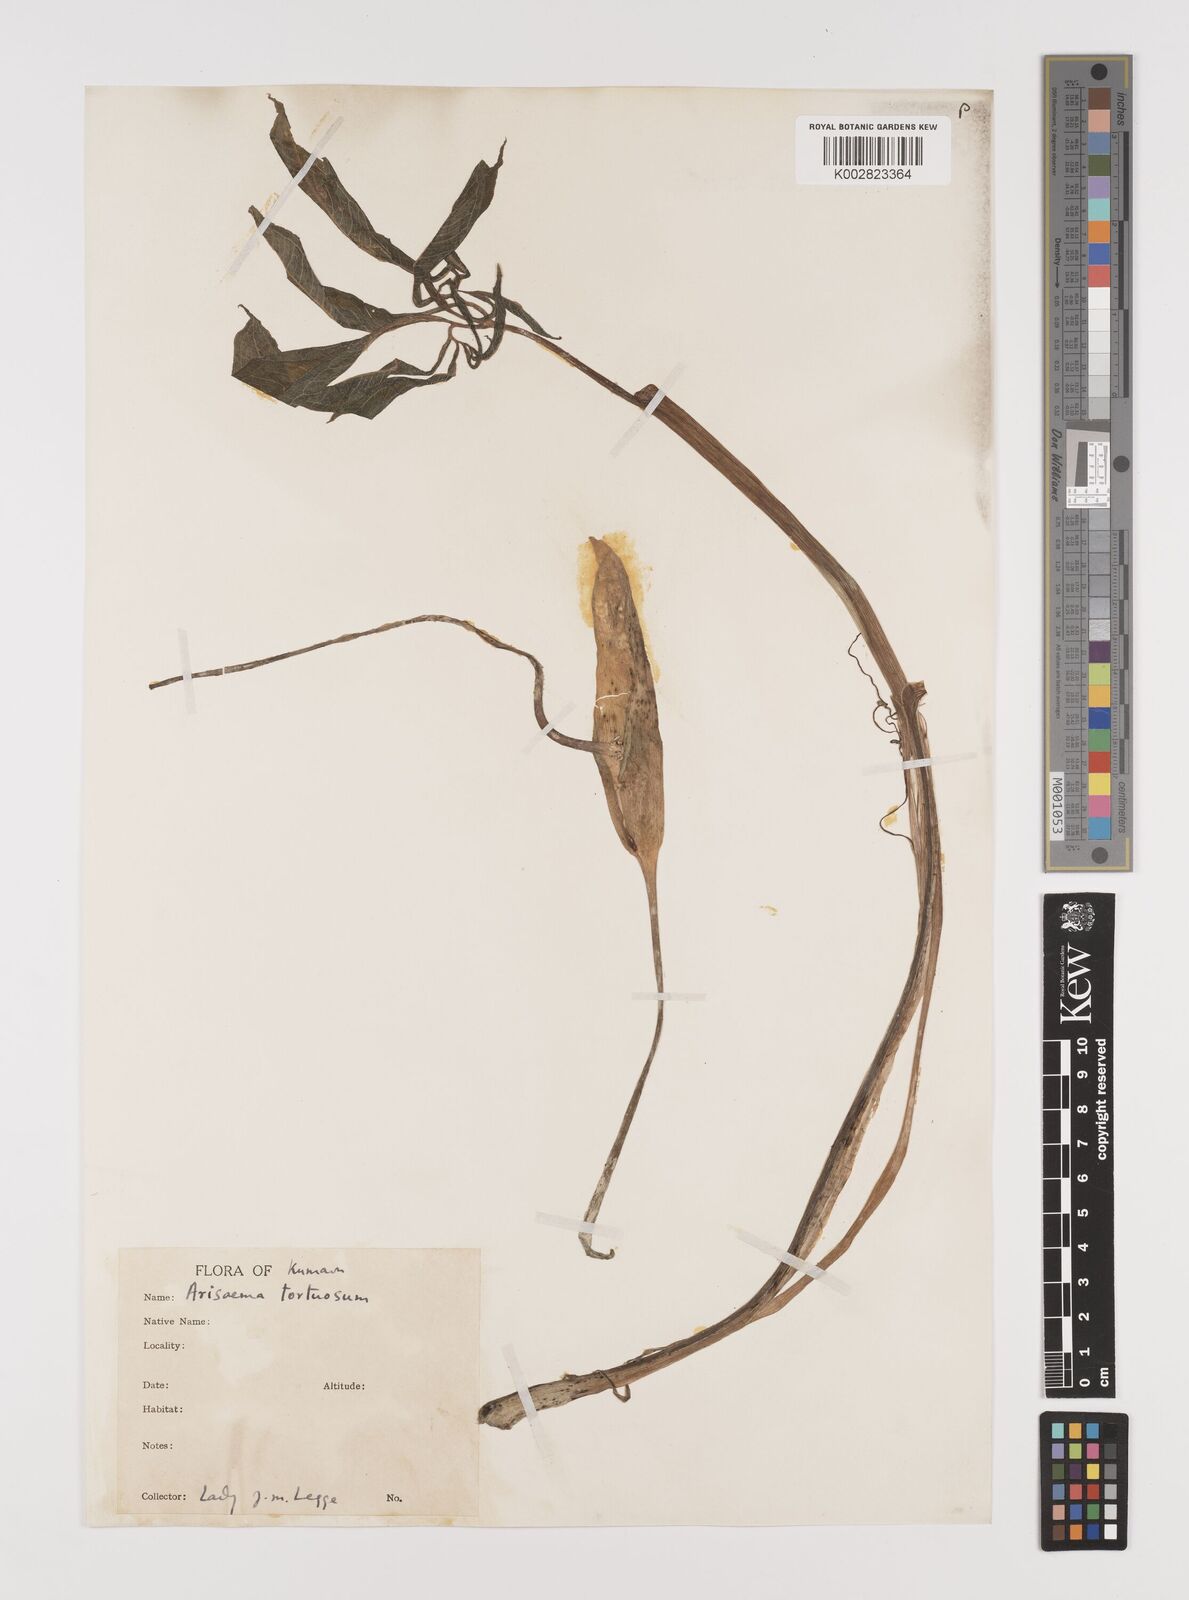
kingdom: Plantae
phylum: Tracheophyta
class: Liliopsida
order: Alismatales
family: Araceae
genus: Arisaema
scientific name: Arisaema tortuosum
